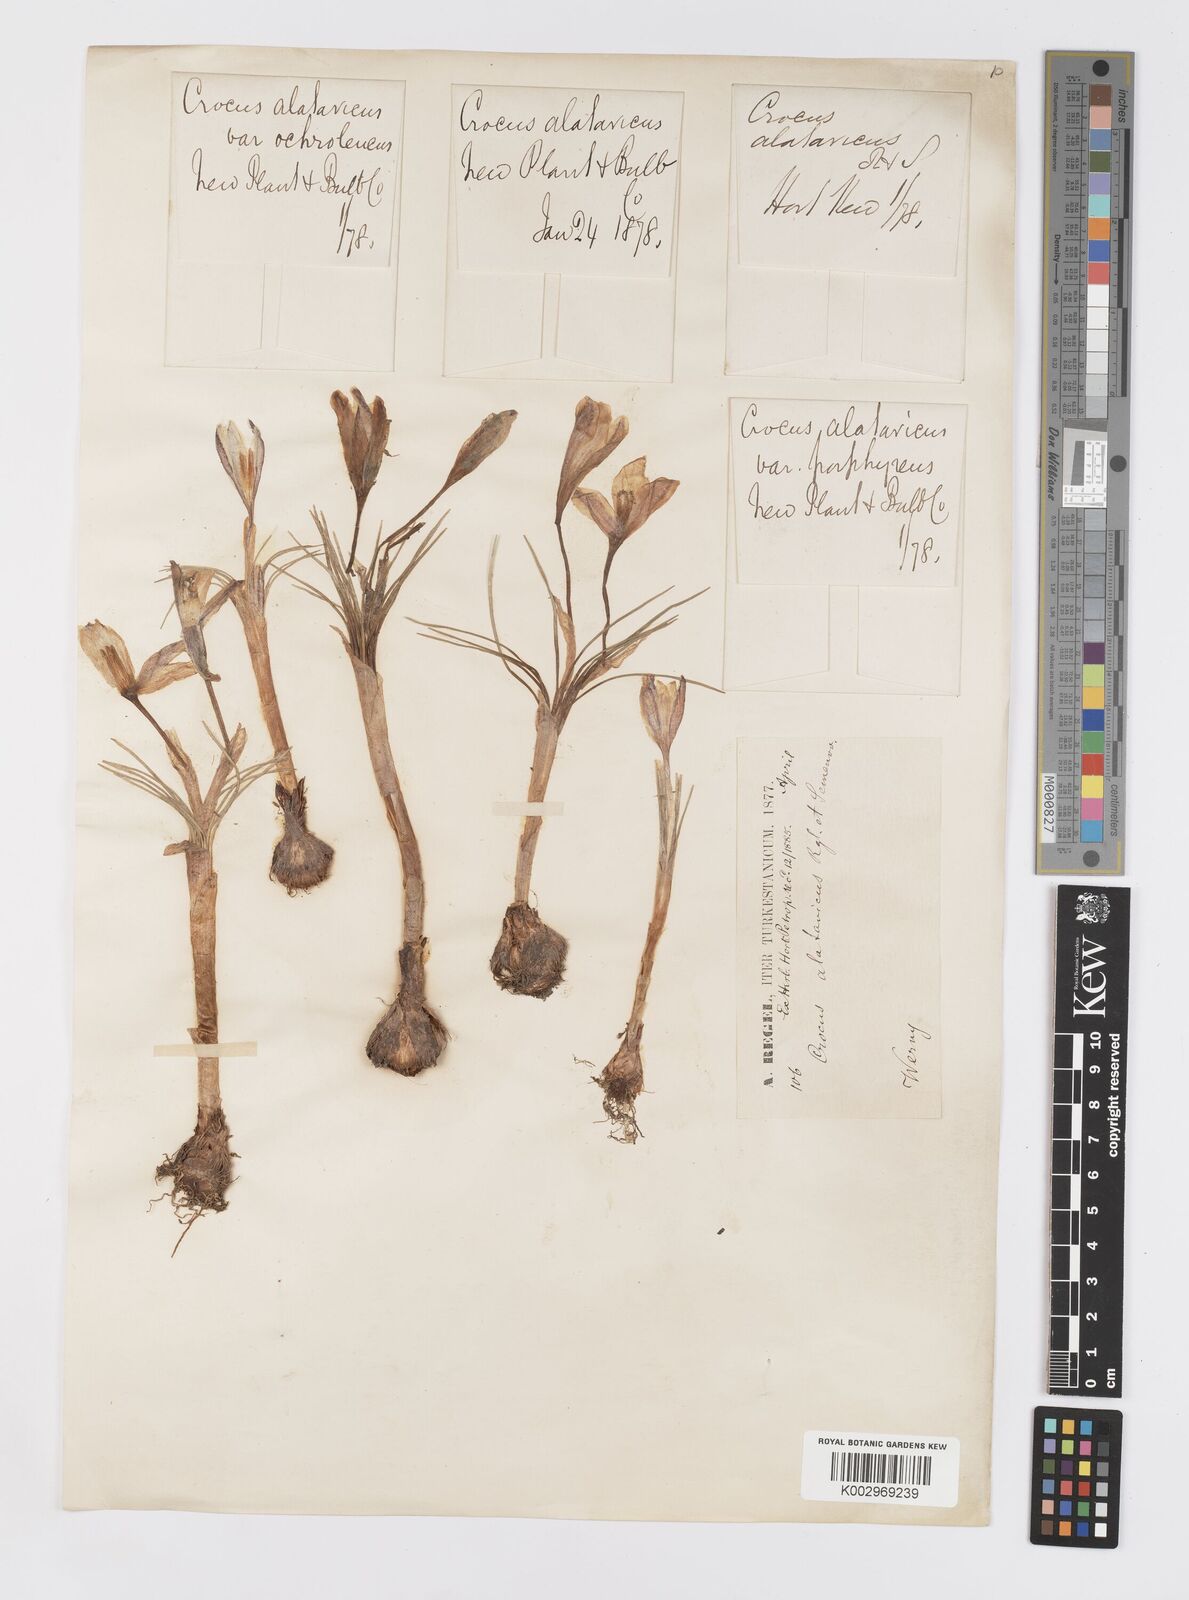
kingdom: Plantae
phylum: Tracheophyta
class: Liliopsida
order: Asparagales
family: Iridaceae
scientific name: Iridaceae
